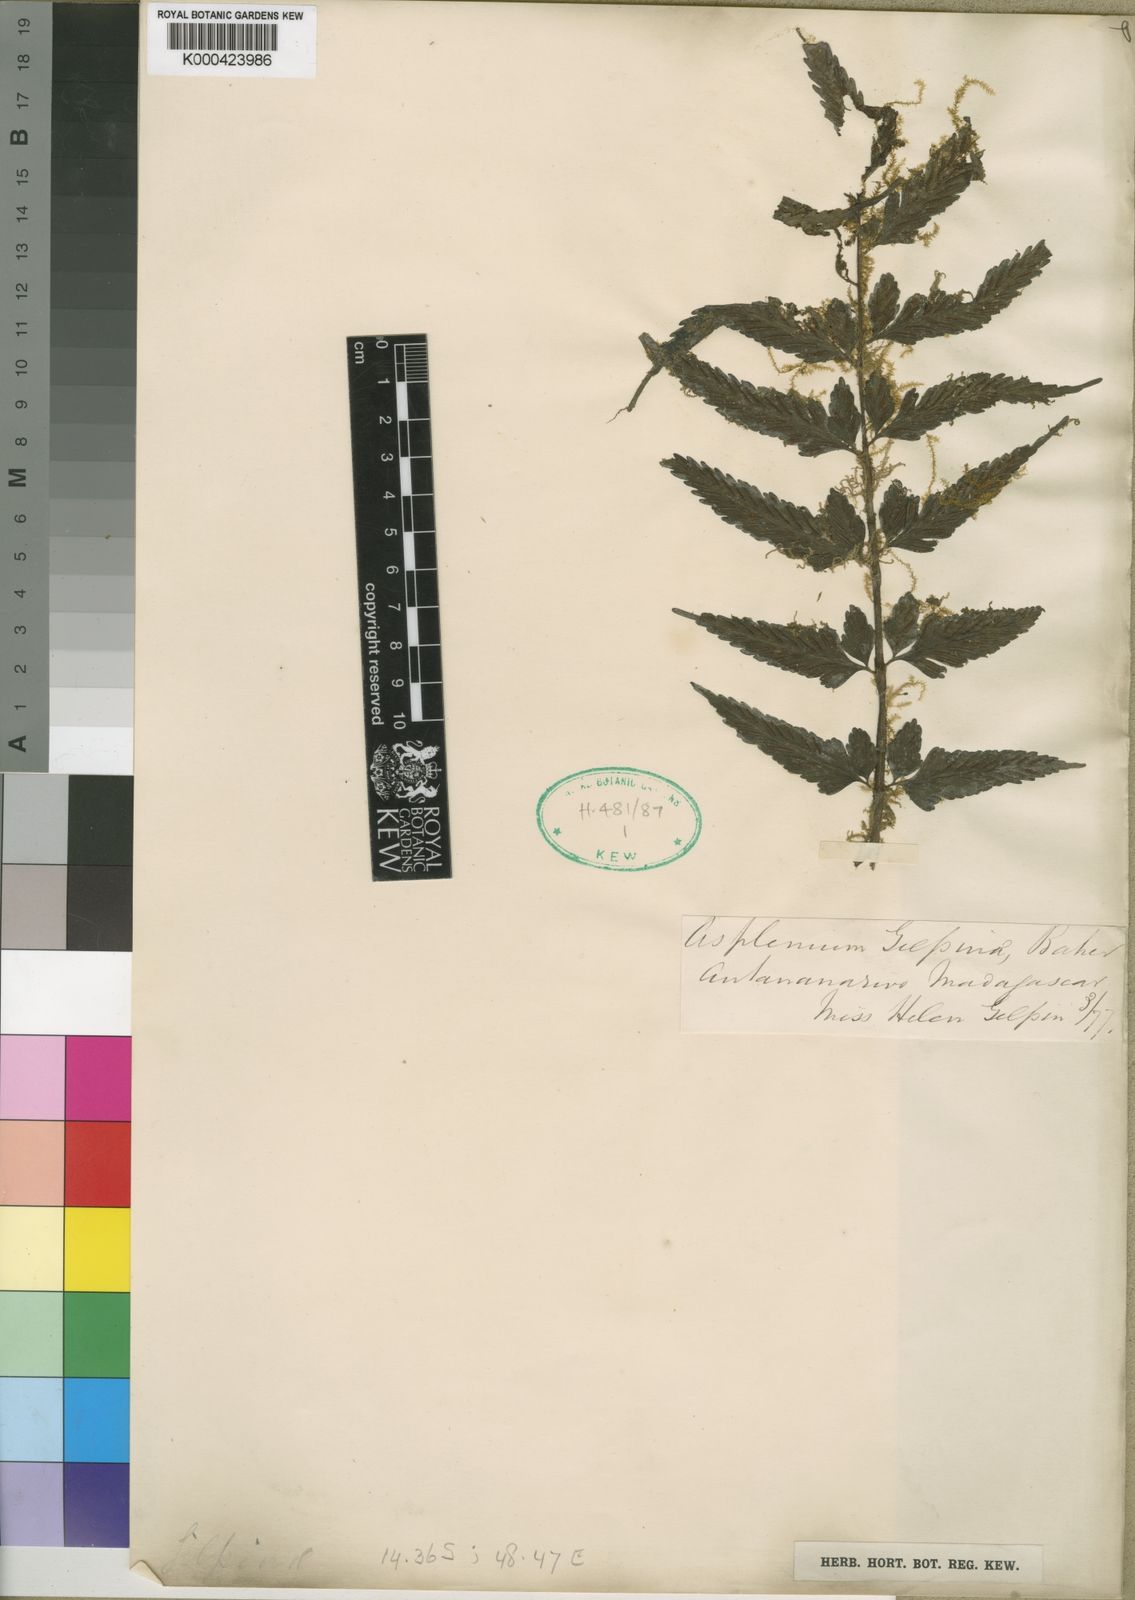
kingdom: Plantae
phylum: Tracheophyta
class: Polypodiopsida
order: Polypodiales
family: Aspleniaceae
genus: Asplenium
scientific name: Asplenium herpetopteris
